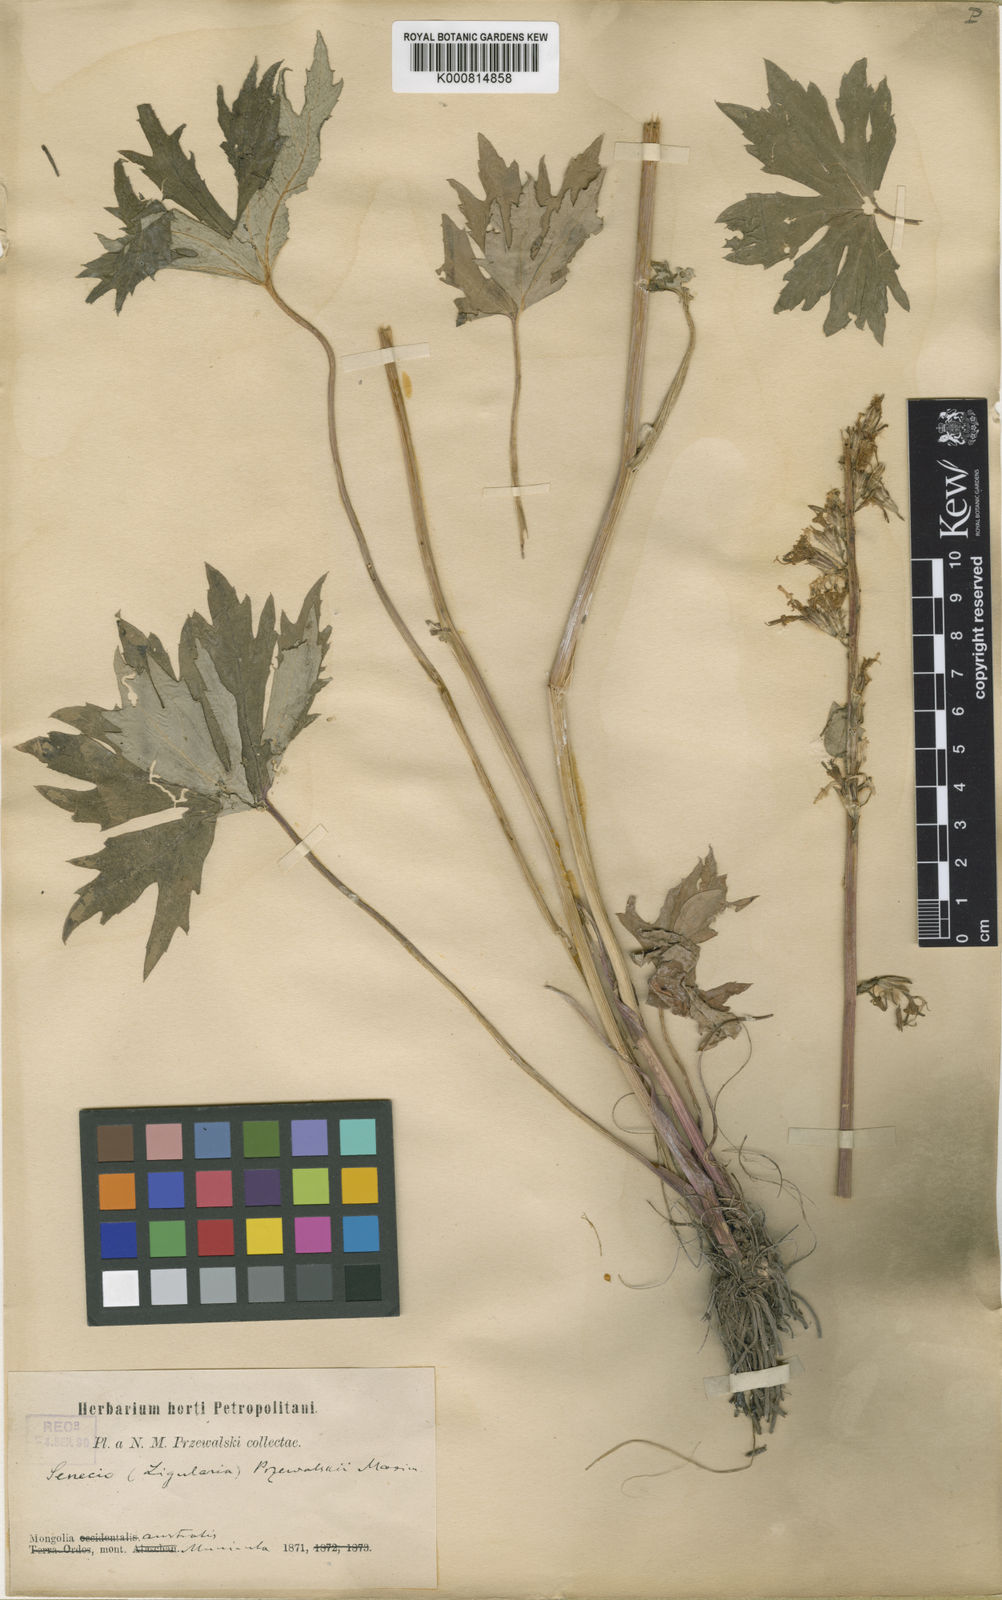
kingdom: Plantae
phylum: Tracheophyta
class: Magnoliopsida
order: Asterales
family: Asteraceae
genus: Ligularia
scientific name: Ligularia
